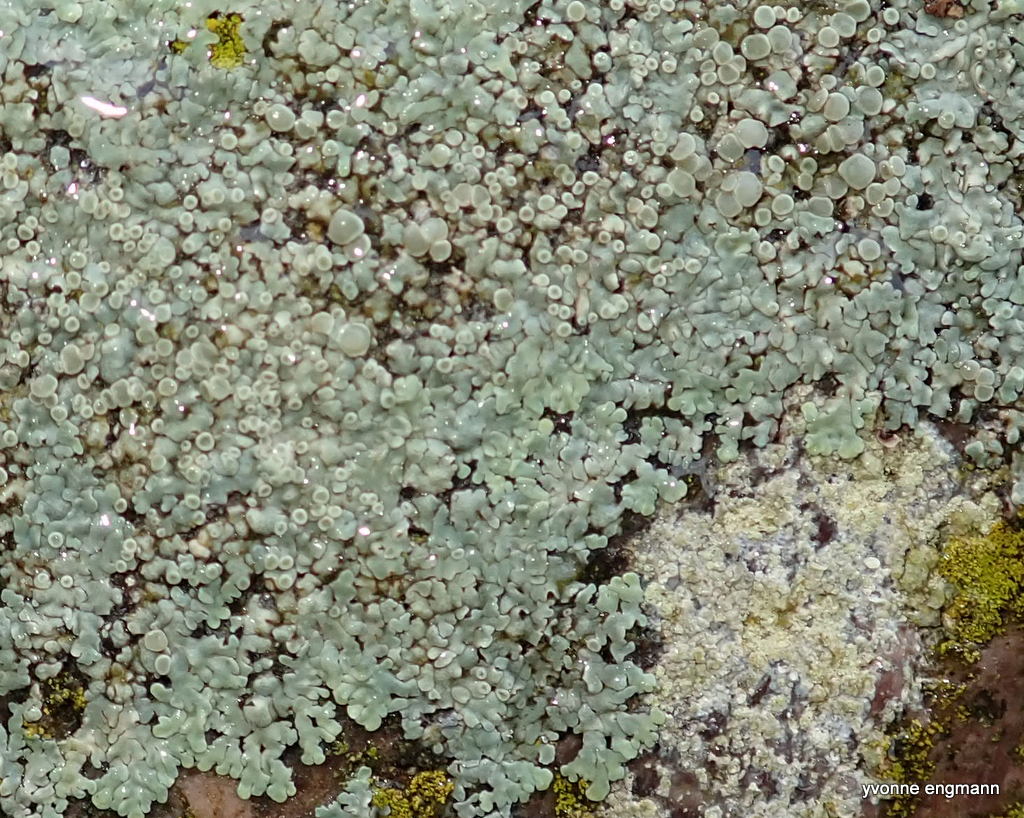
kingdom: Fungi
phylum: Ascomycota
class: Lecanoromycetes
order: Lecanorales
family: Lecanoraceae
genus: Protoparmeliopsis
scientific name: Protoparmeliopsis muralis
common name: randfliget kantskivelav
